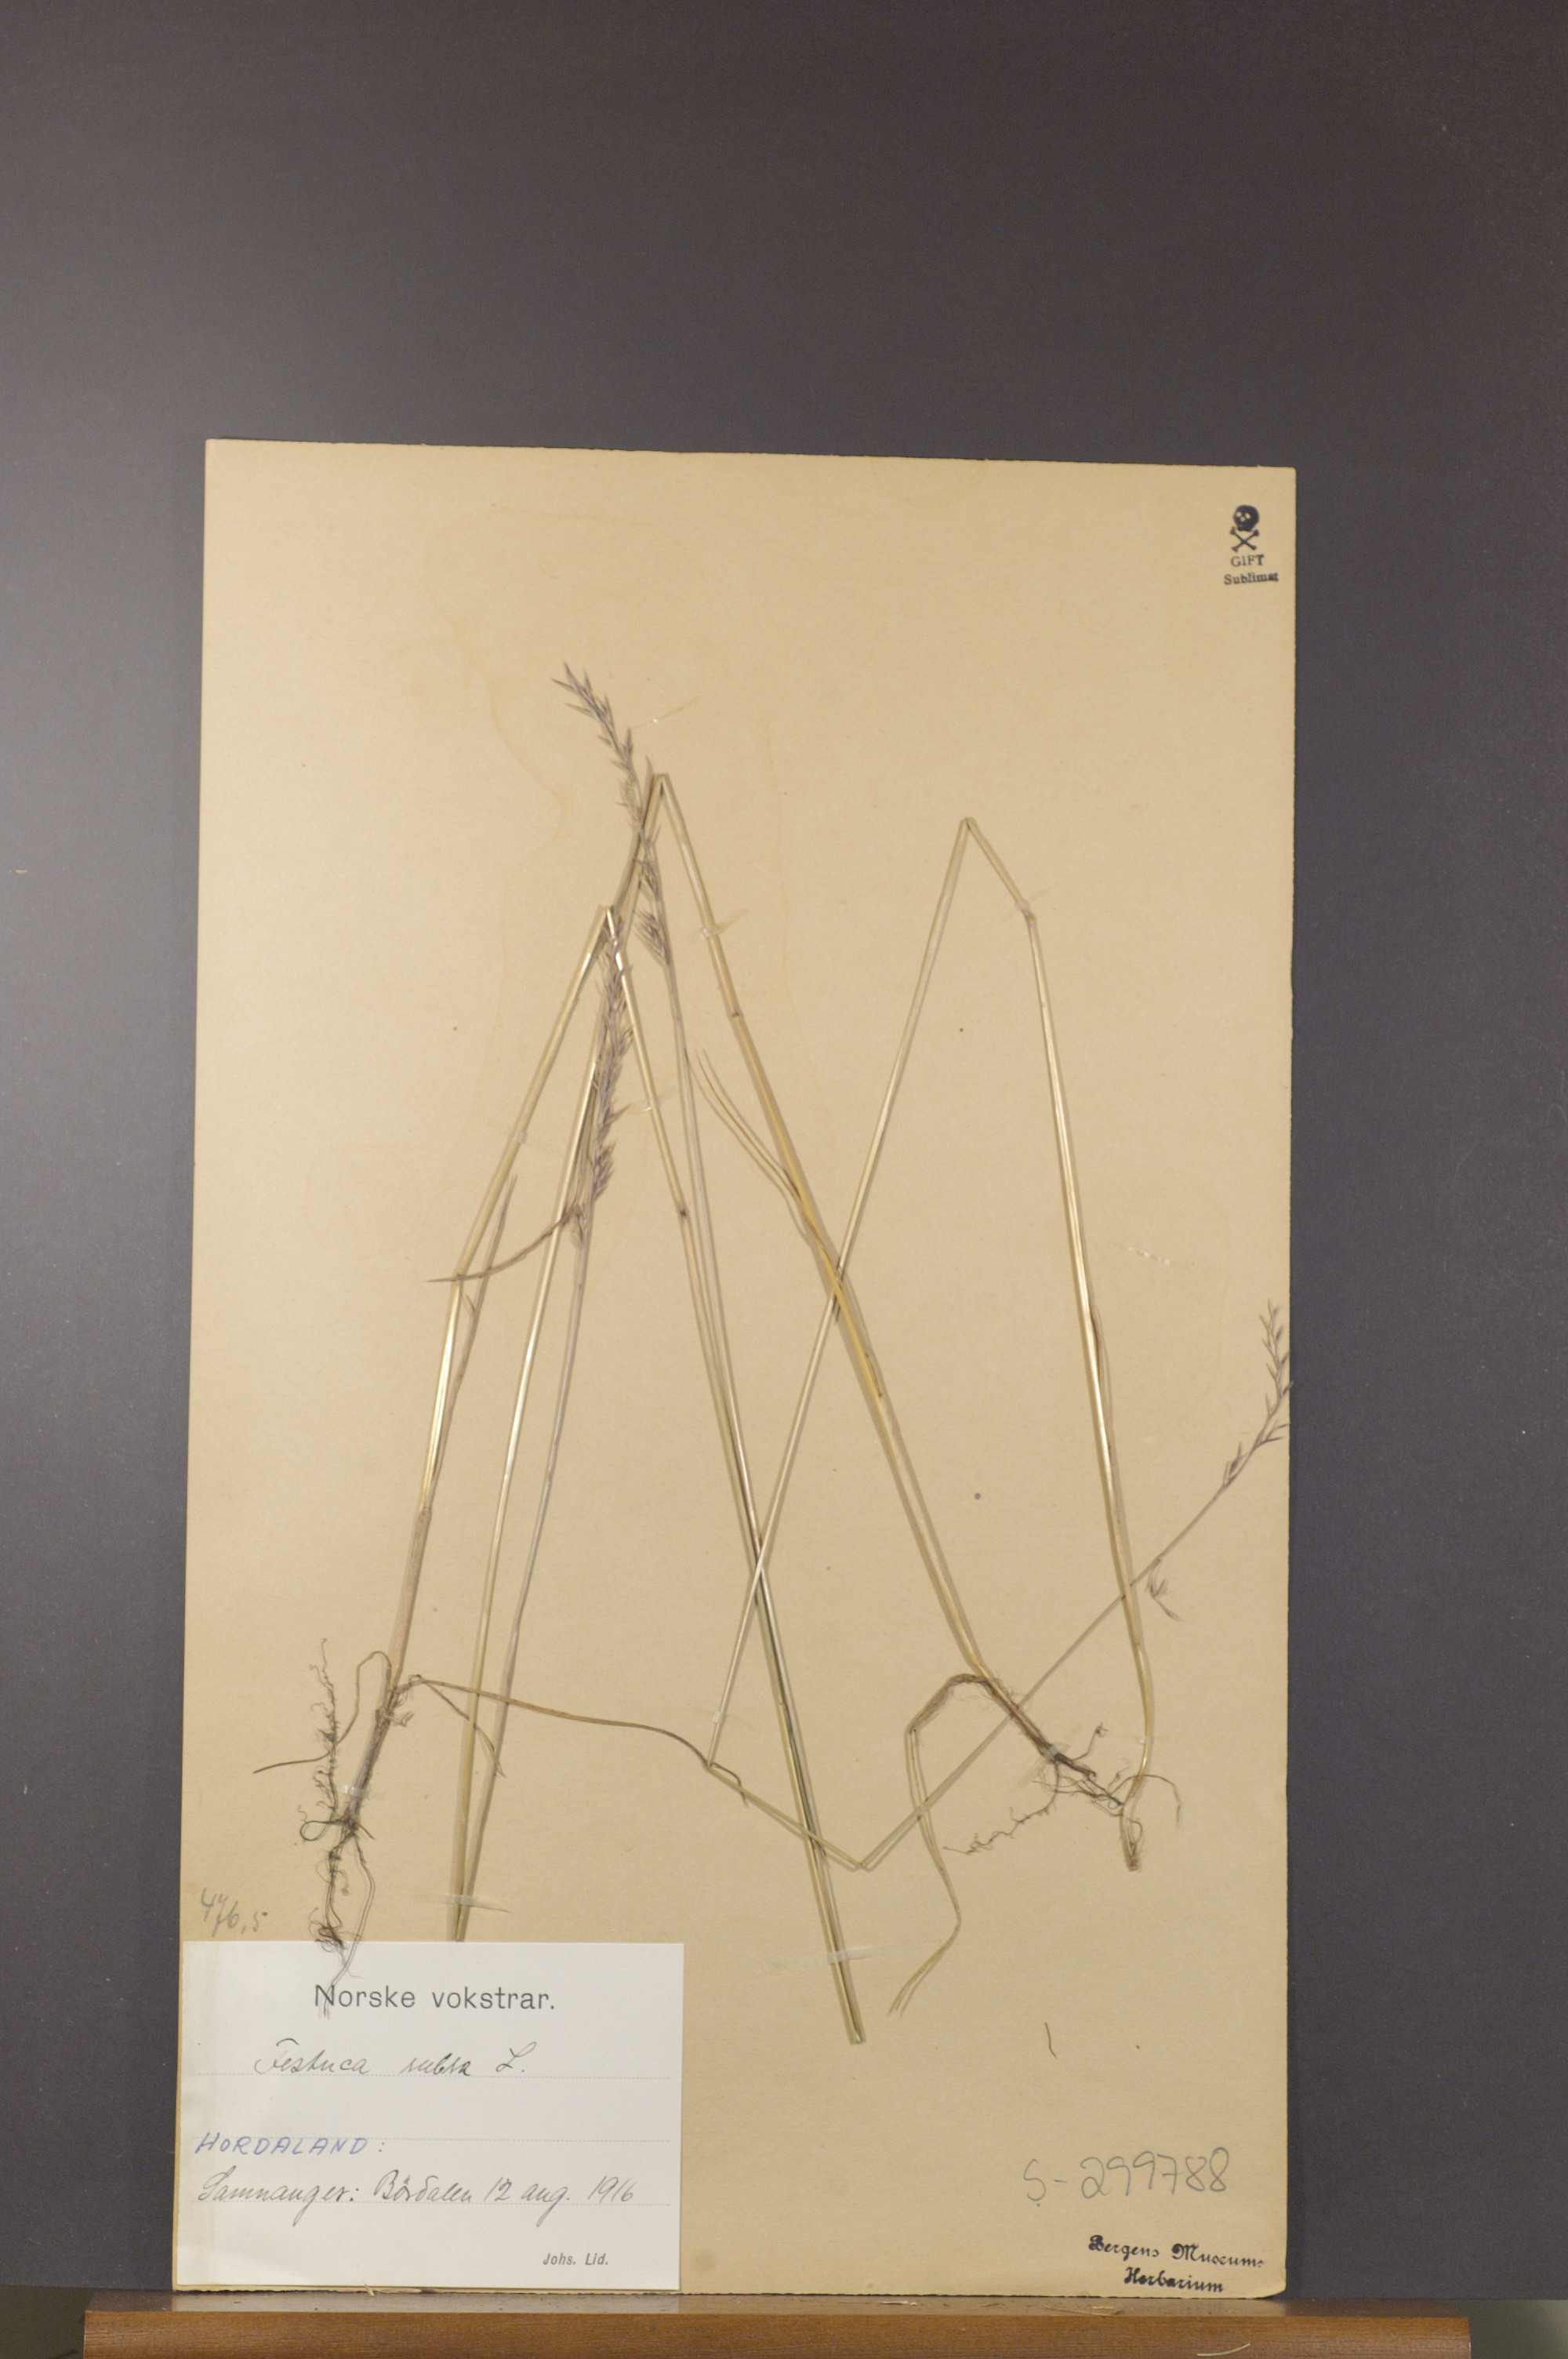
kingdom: Plantae
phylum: Tracheophyta
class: Liliopsida
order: Poales
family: Poaceae
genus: Festuca
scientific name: Festuca rubra
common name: Red fescue
